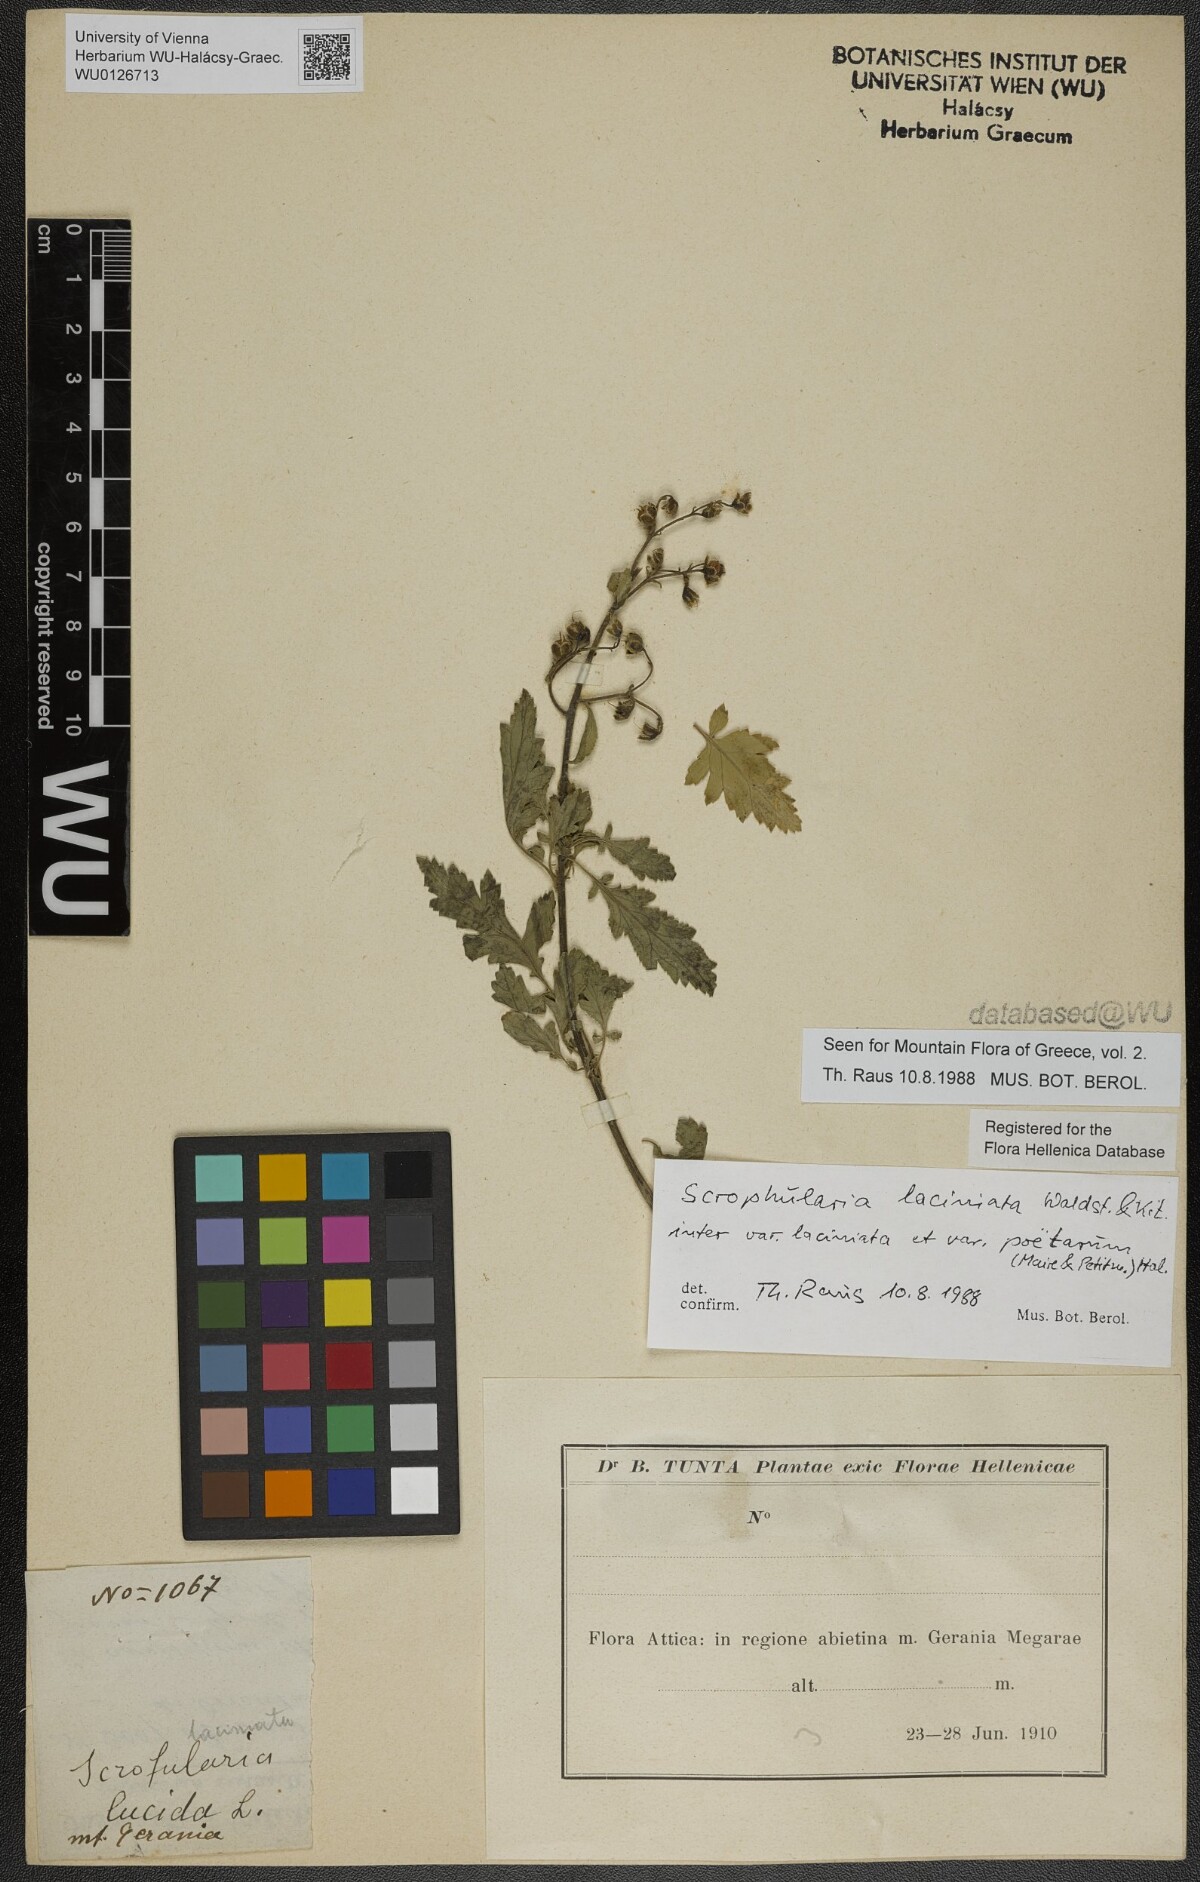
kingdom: Plantae
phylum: Tracheophyta
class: Magnoliopsida
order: Lamiales
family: Scrophulariaceae
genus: Scrophularia
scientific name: Scrophularia laciniata
